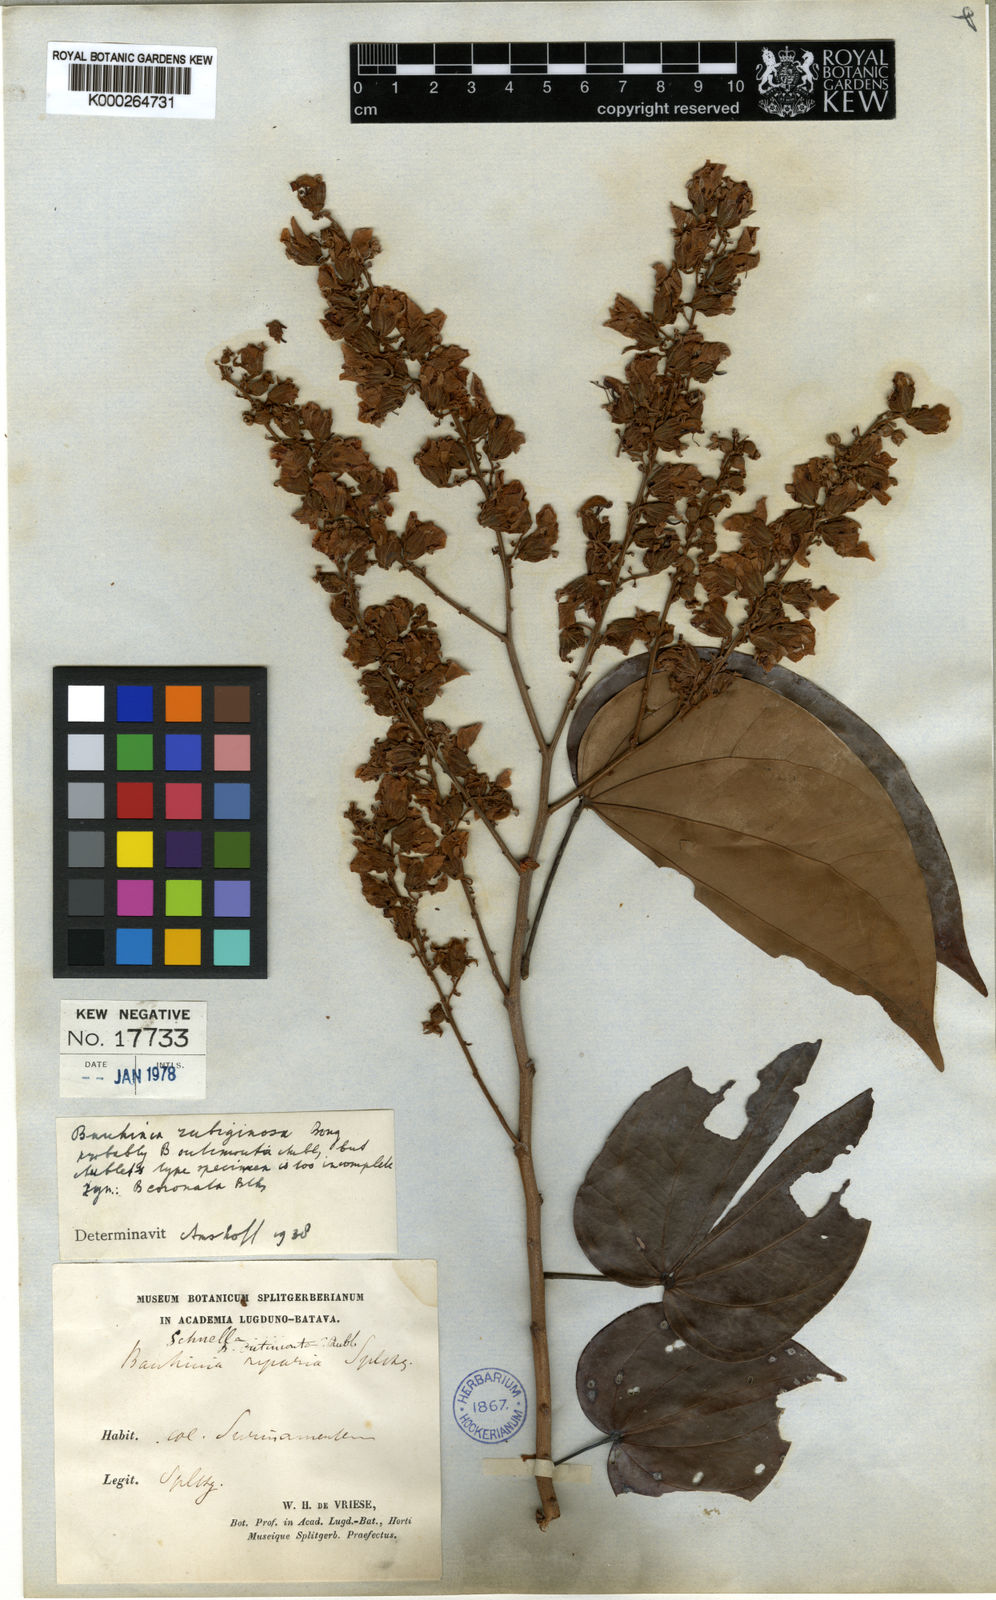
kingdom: Plantae
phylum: Tracheophyta
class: Magnoliopsida
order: Fabales
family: Fabaceae
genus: Schnella
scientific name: Schnella outimouta
